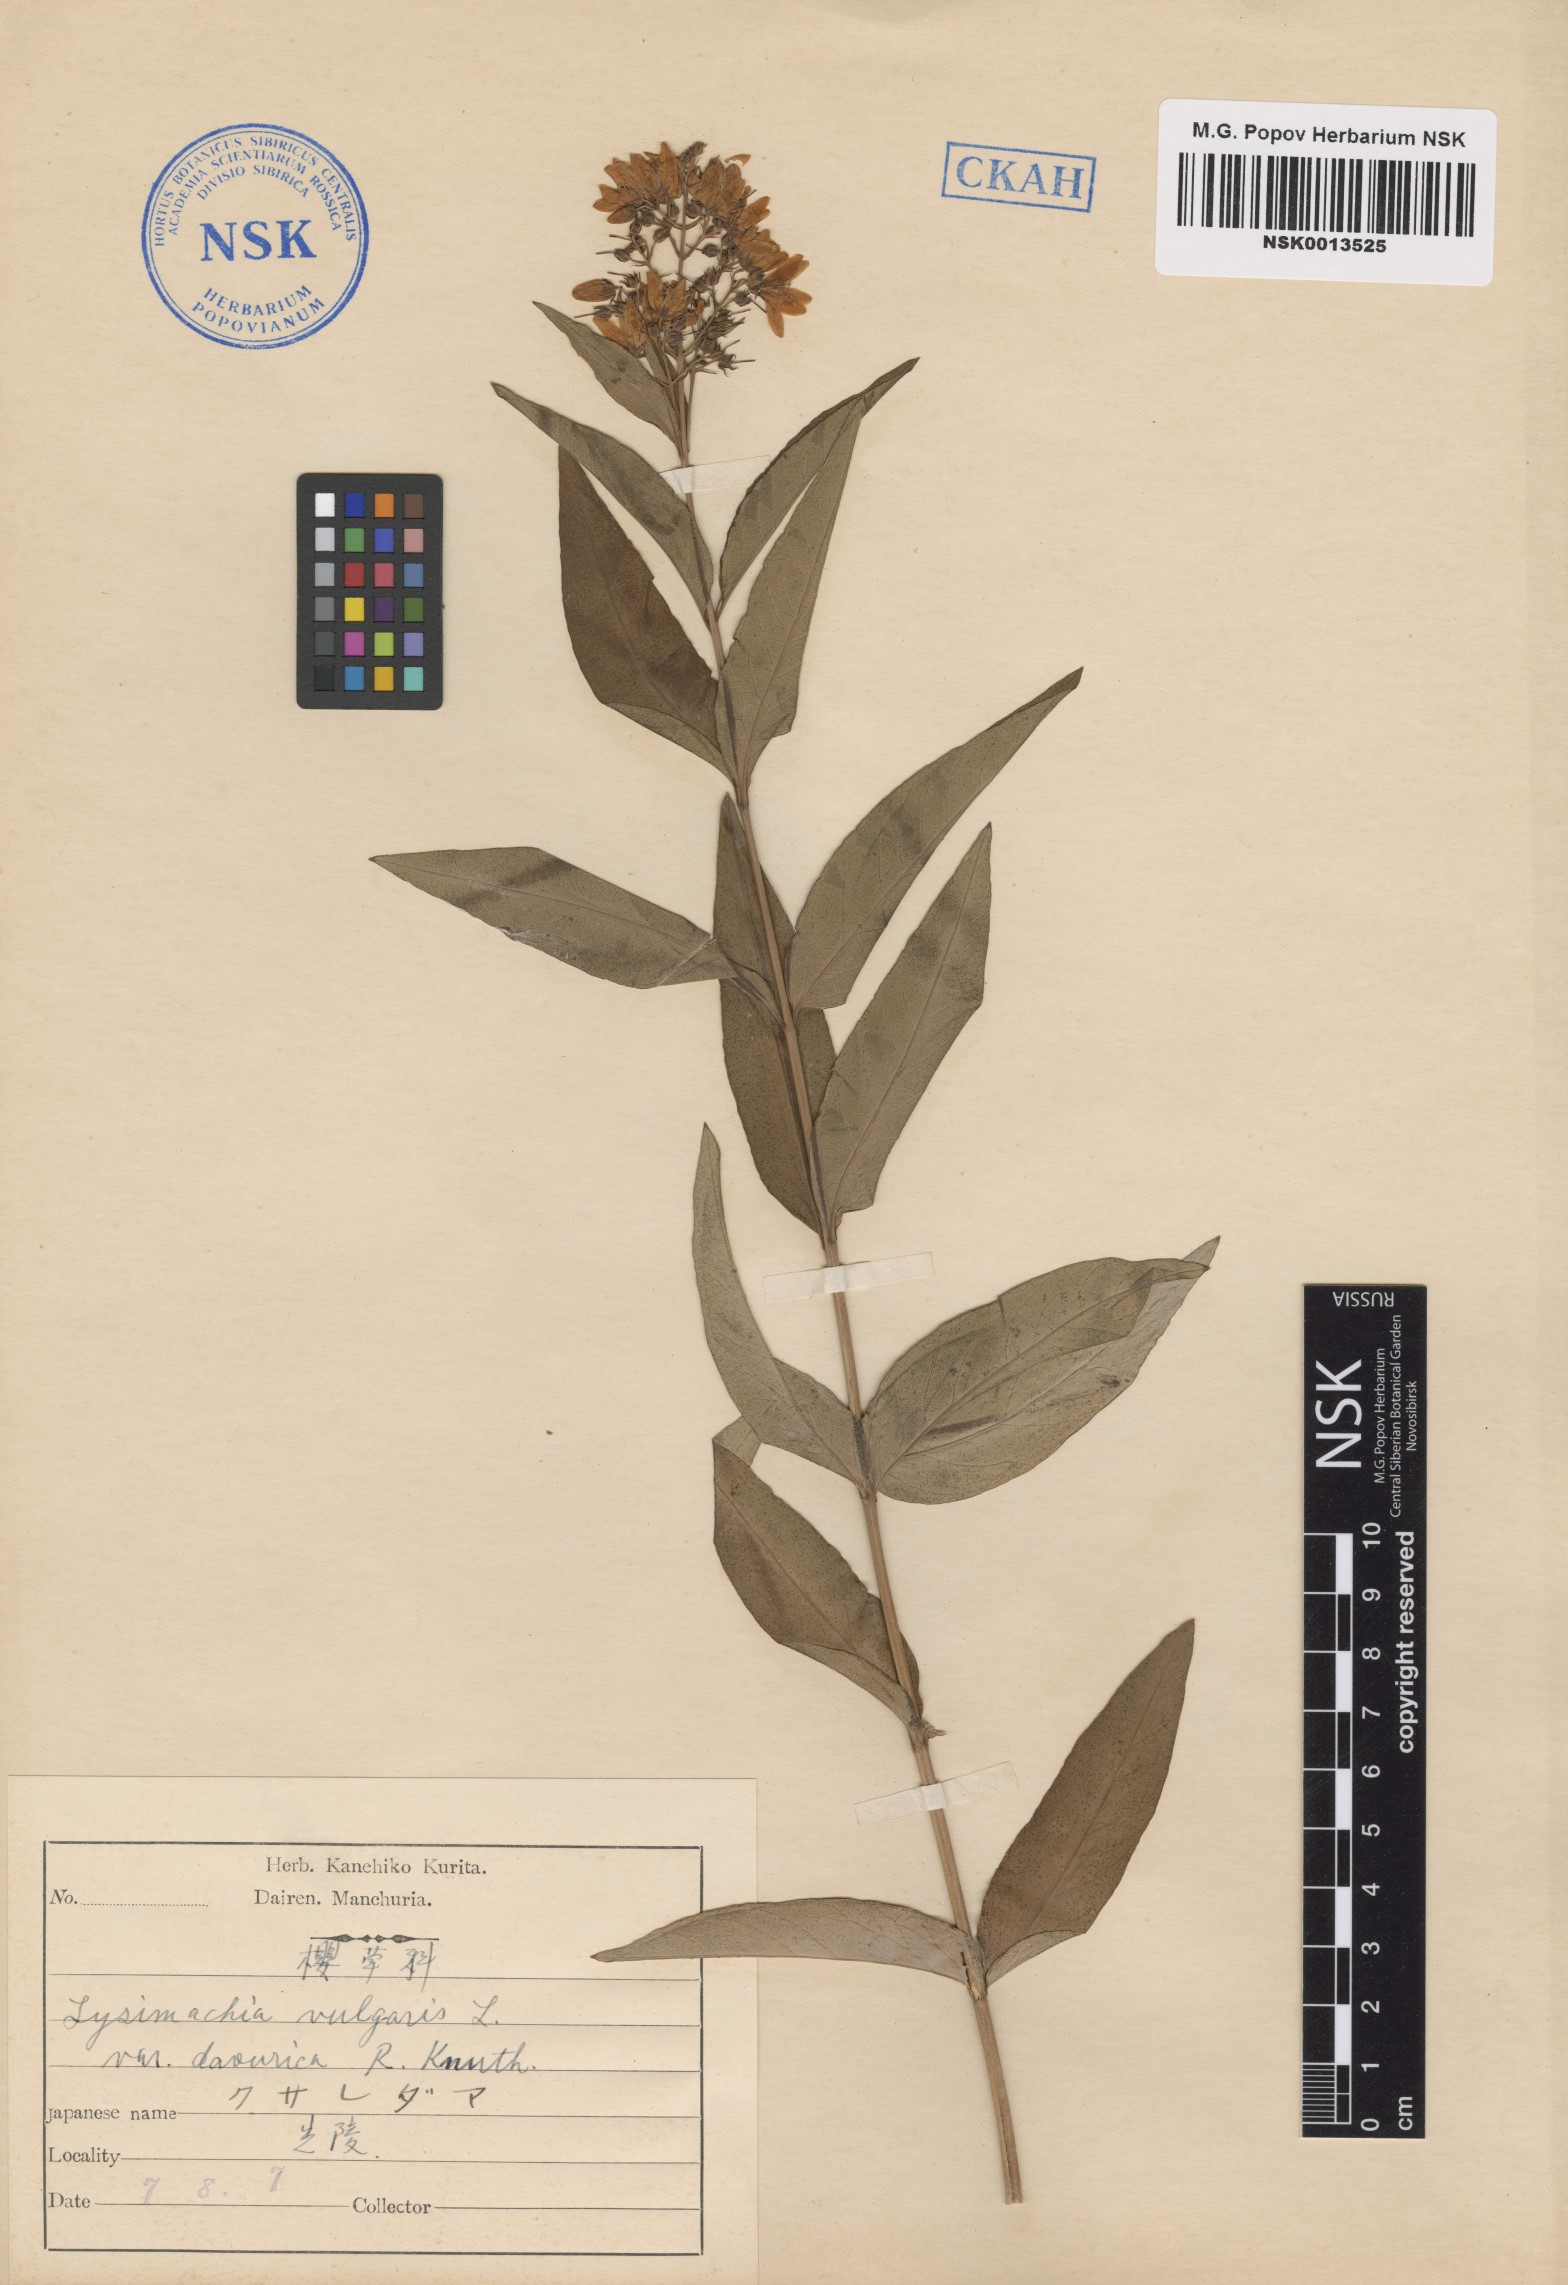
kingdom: Plantae
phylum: Tracheophyta
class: Magnoliopsida
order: Ericales
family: Primulaceae
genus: Lysimachia
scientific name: Lysimachia davurica
